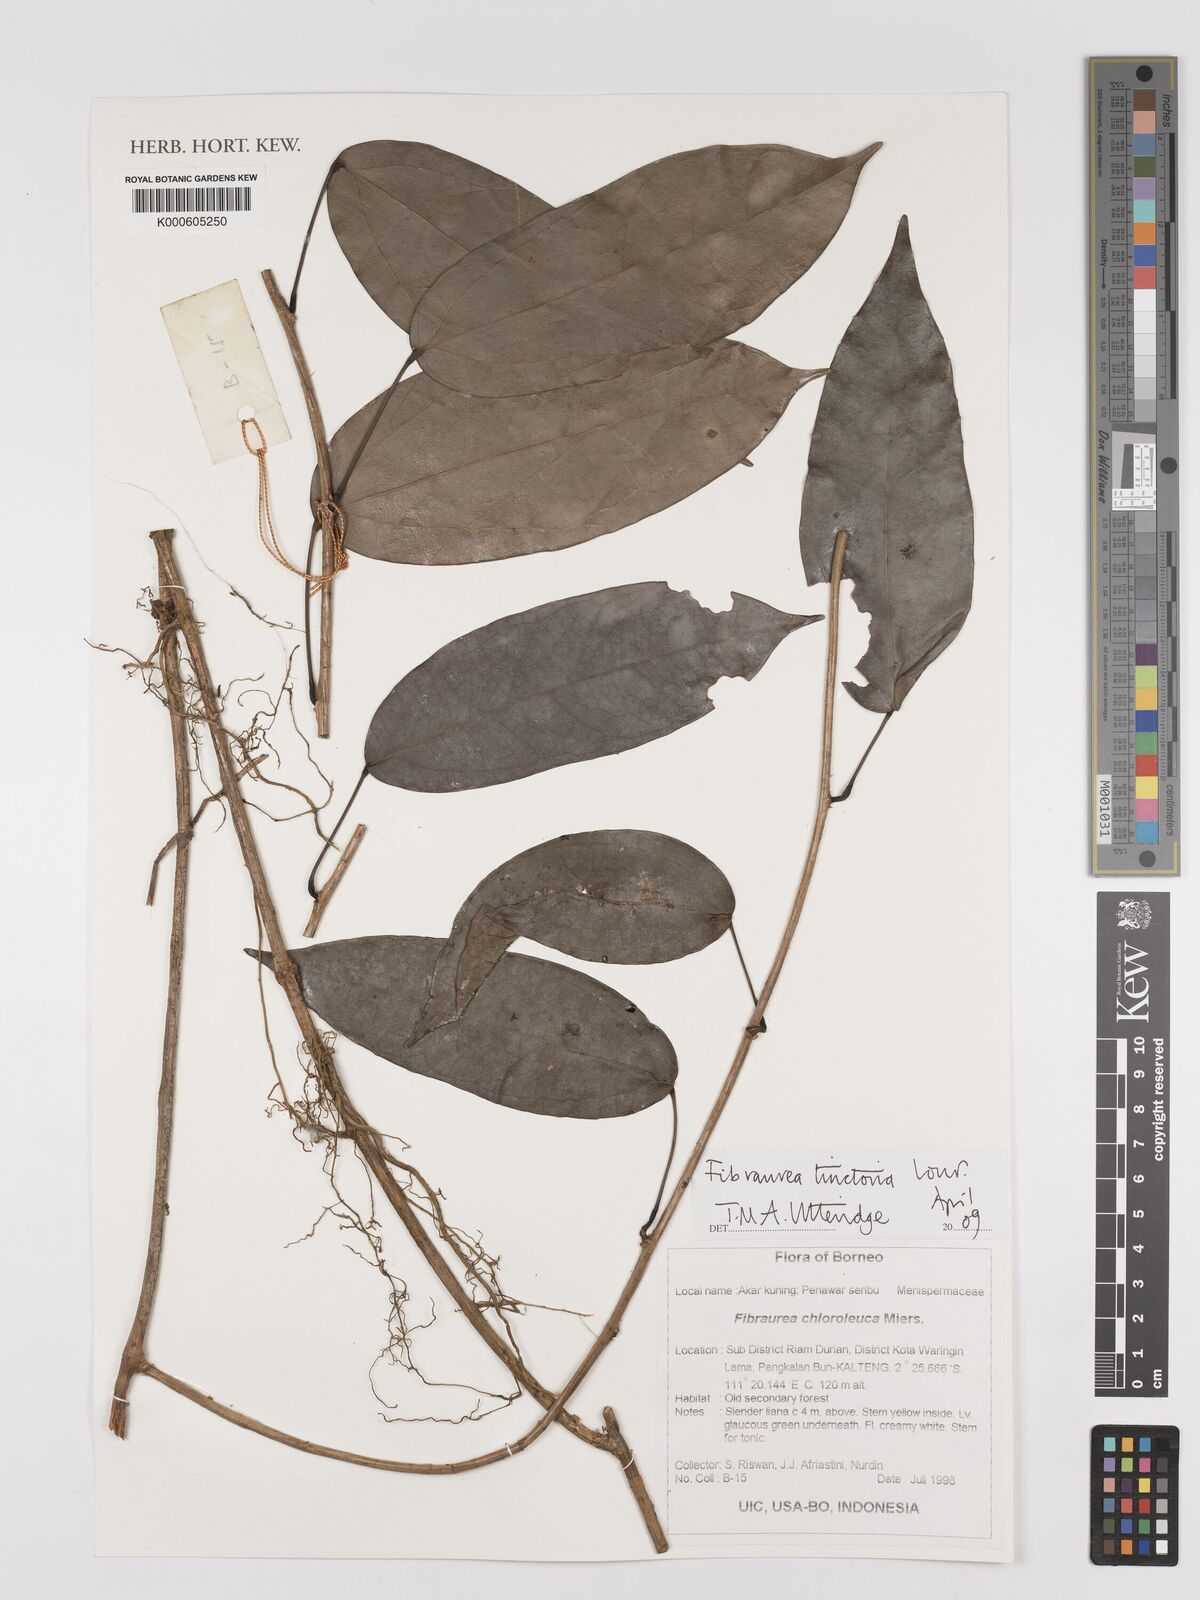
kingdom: Plantae
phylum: Tracheophyta
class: Magnoliopsida
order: Ranunculales
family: Menispermaceae
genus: Fibraurea
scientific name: Fibraurea tinctoria
